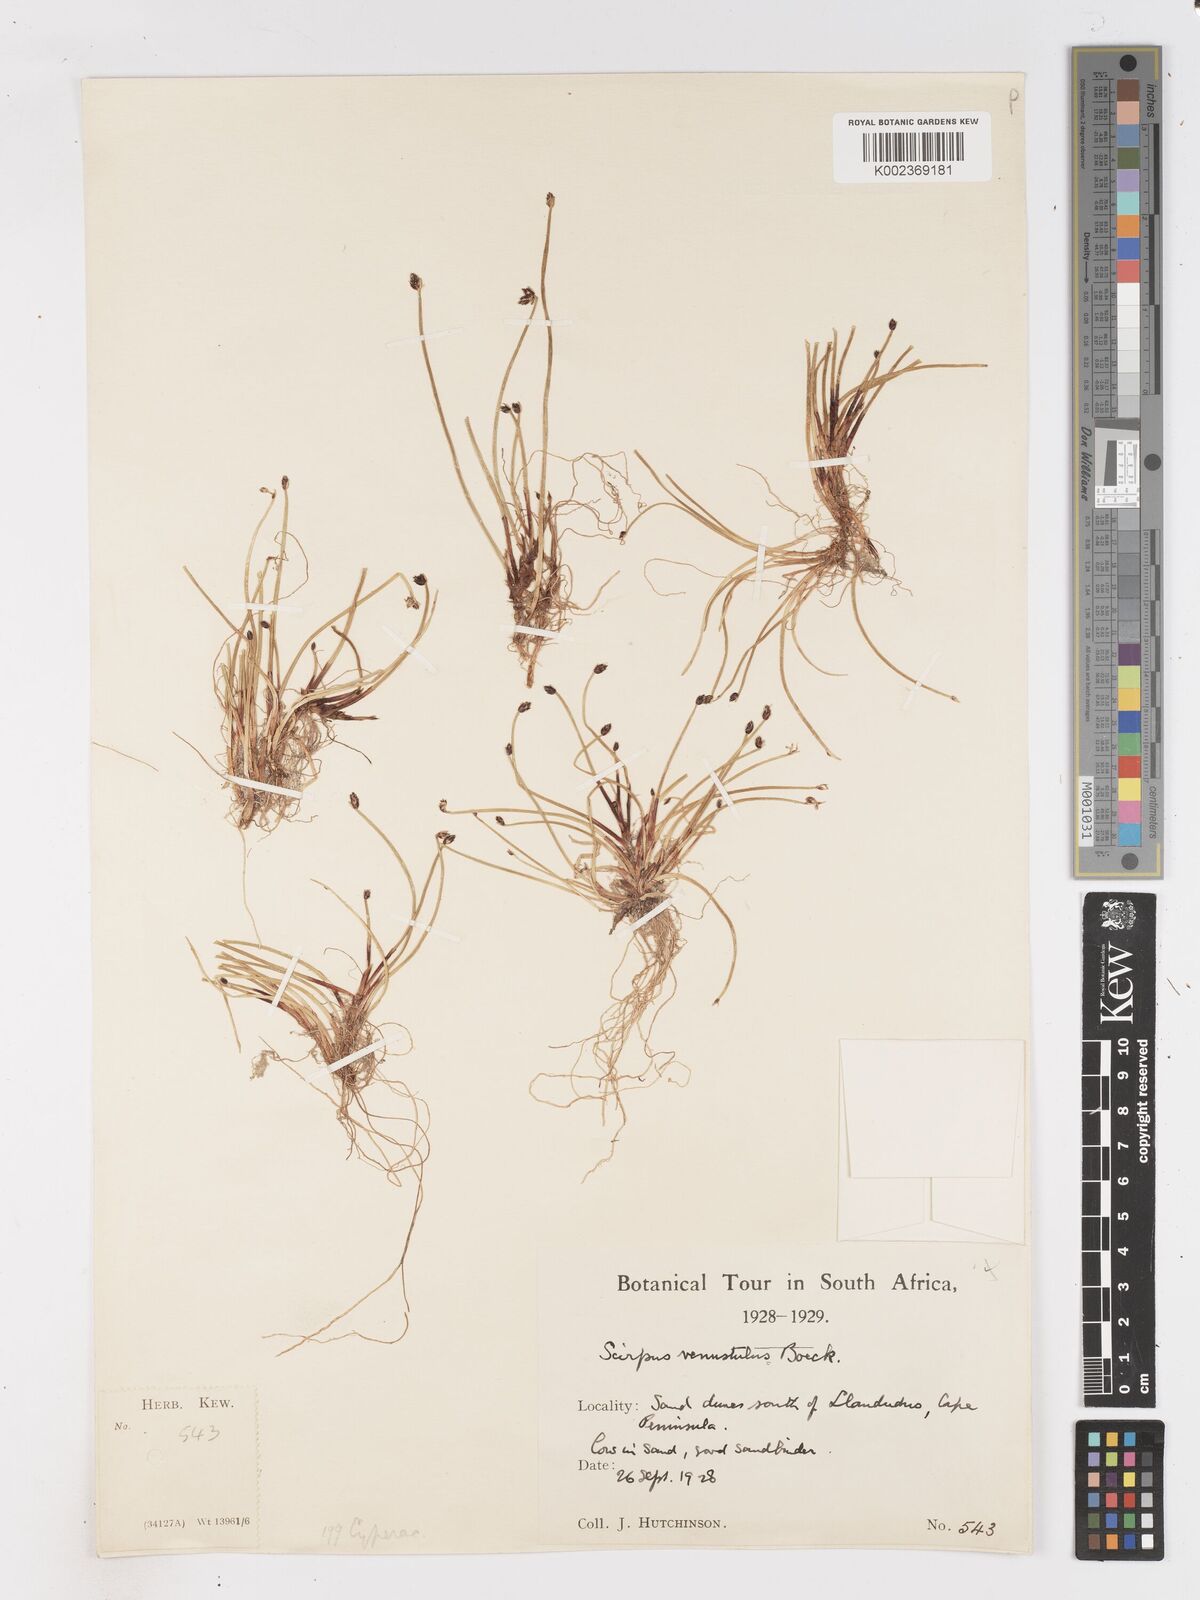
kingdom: Plantae
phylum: Tracheophyta
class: Liliopsida
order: Poales
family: Cyperaceae
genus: Isolepis
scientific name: Isolepis venustula
